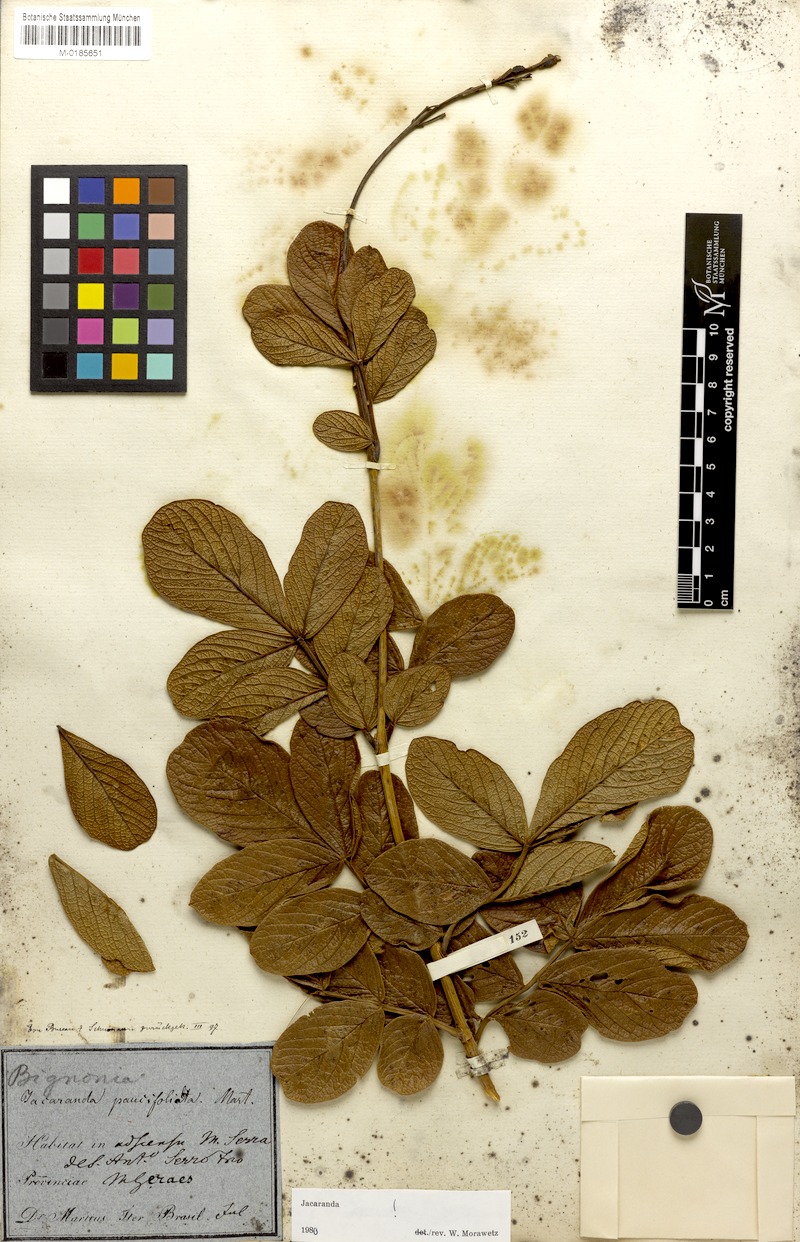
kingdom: Plantae
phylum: Tracheophyta
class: Magnoliopsida
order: Lamiales
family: Bignoniaceae
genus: Jacaranda
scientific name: Jacaranda paucifoliolata
